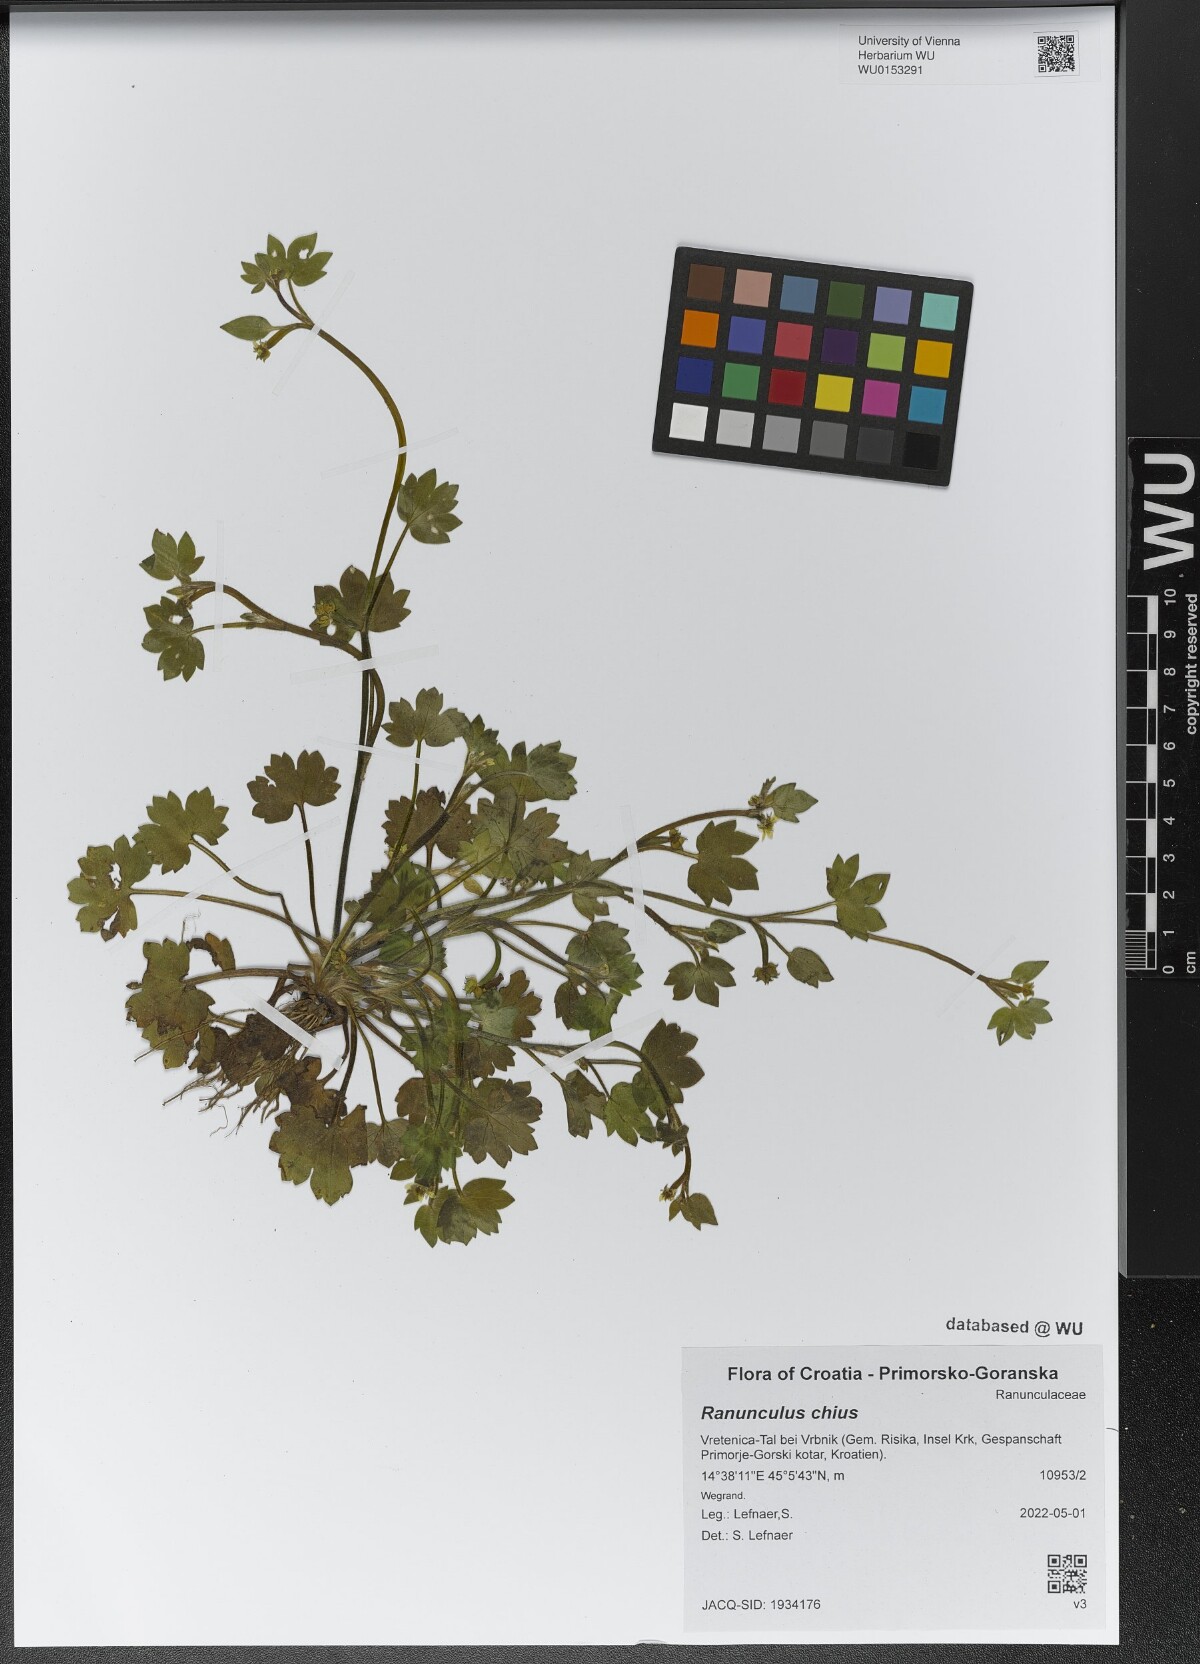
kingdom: Plantae
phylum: Tracheophyta
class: Magnoliopsida
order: Ranunculales
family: Ranunculaceae
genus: Ranunculus
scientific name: Ranunculus chius
